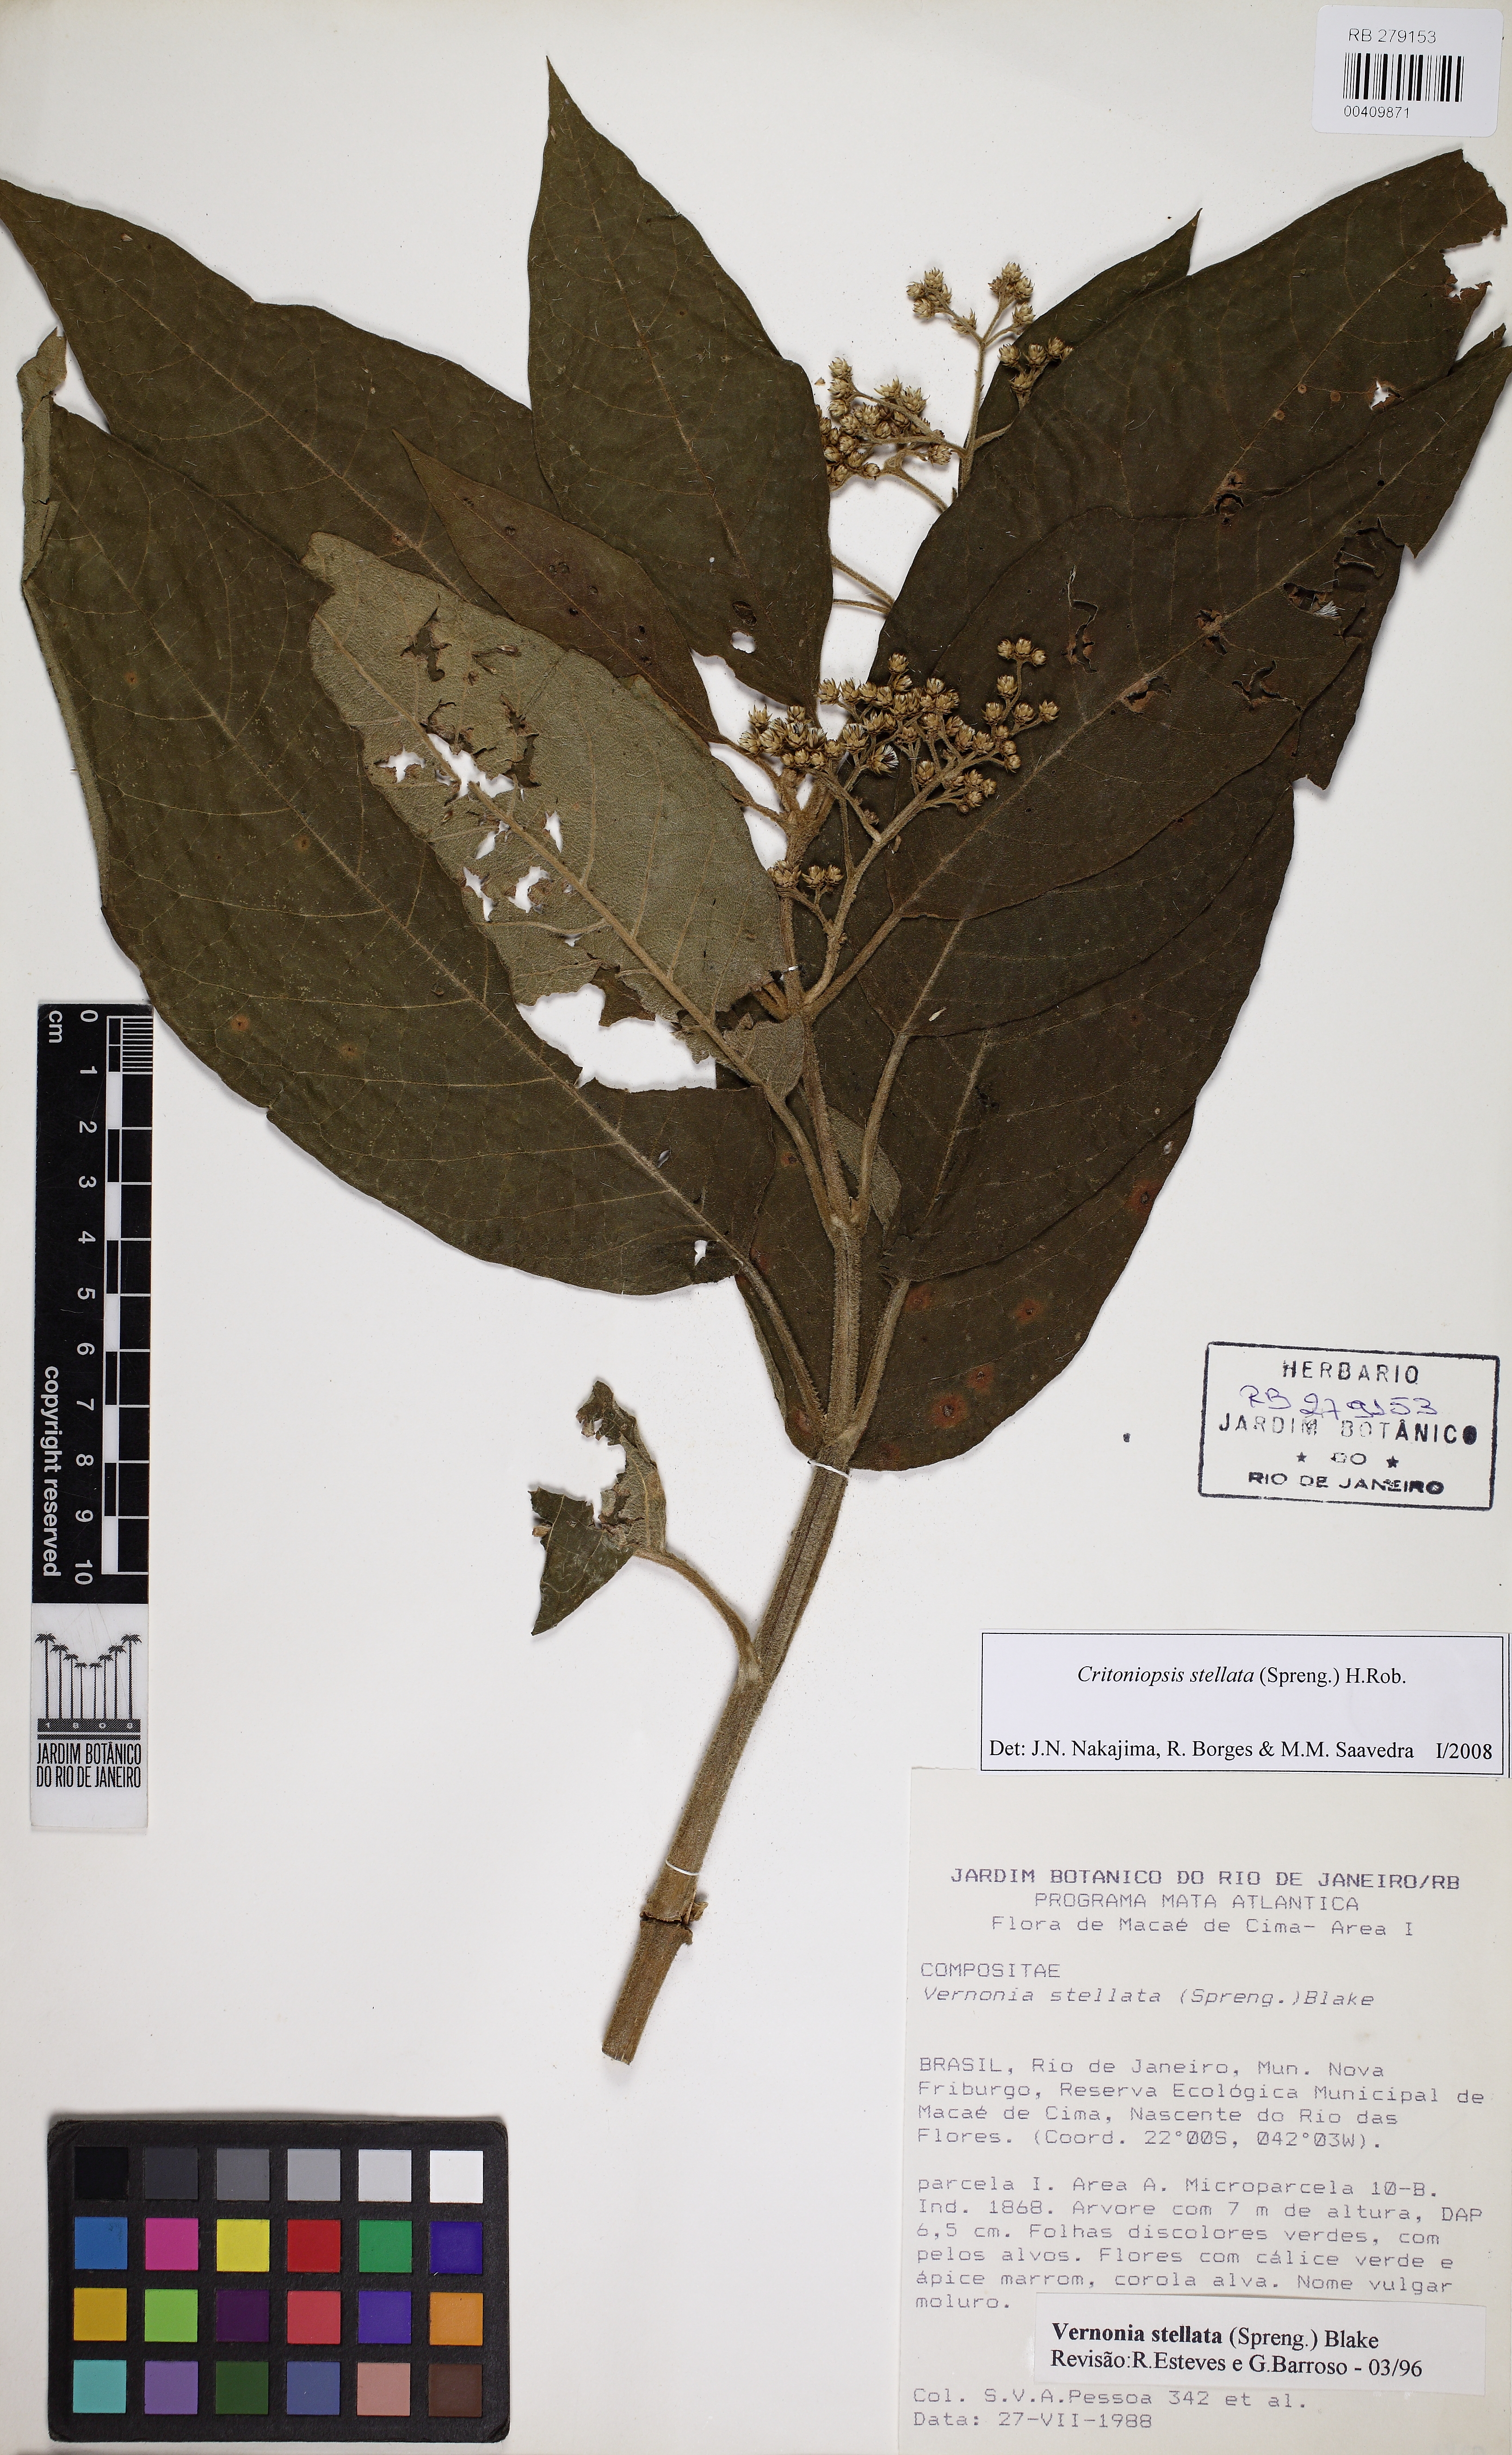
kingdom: Plantae
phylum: Tracheophyta
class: Magnoliopsida
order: Asterales
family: Asteraceae
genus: Critoniopsis
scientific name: Critoniopsis stellata
